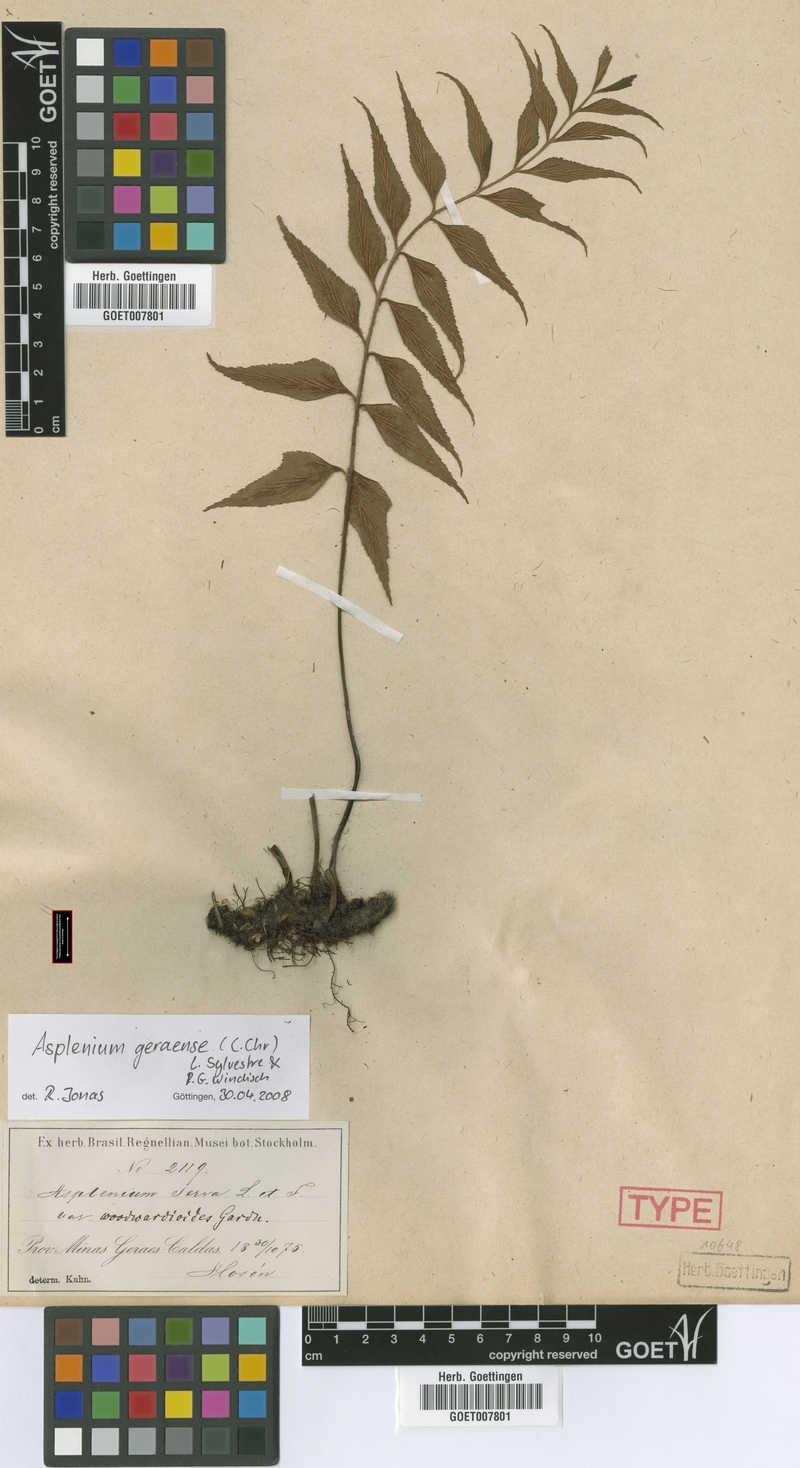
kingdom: Plantae
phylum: Tracheophyta
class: Polypodiopsida
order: Polypodiales
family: Aspleniaceae
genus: Asplenium
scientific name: Asplenium geraense
